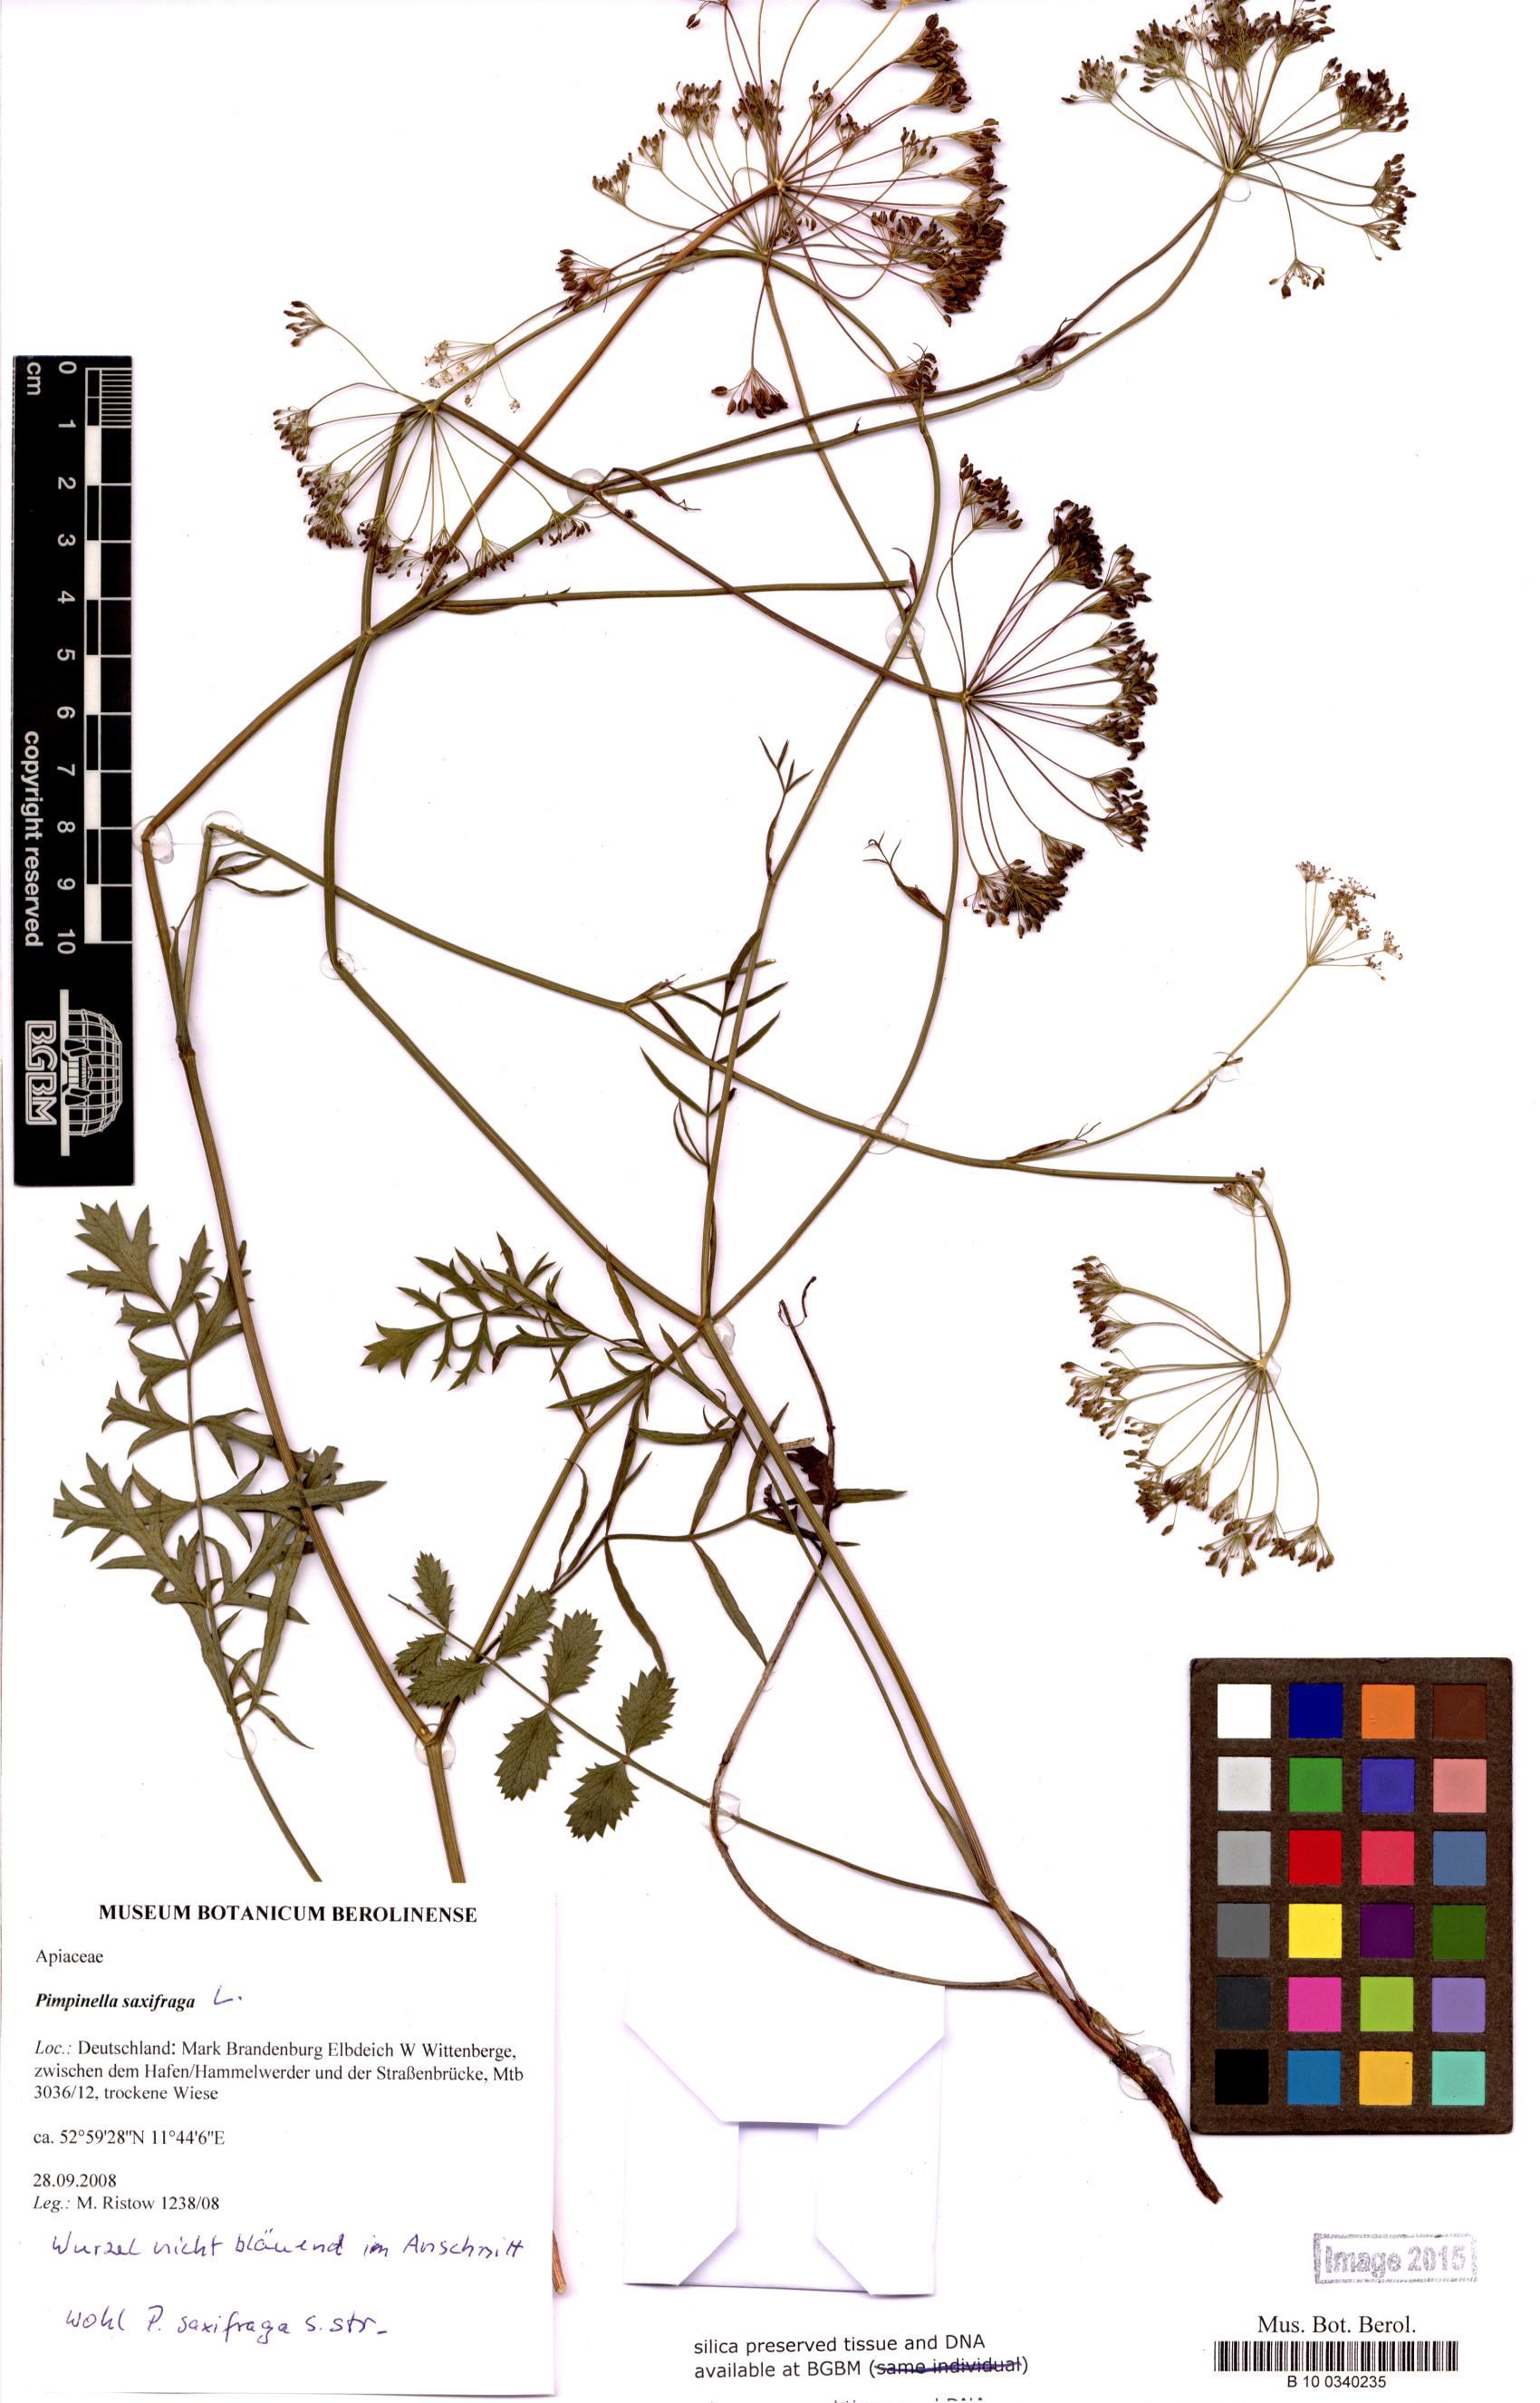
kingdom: Plantae
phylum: Tracheophyta
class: Magnoliopsida
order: Apiales
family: Apiaceae
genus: Pimpinella
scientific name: Pimpinella saxifraga
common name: Burnet-saxifrage
